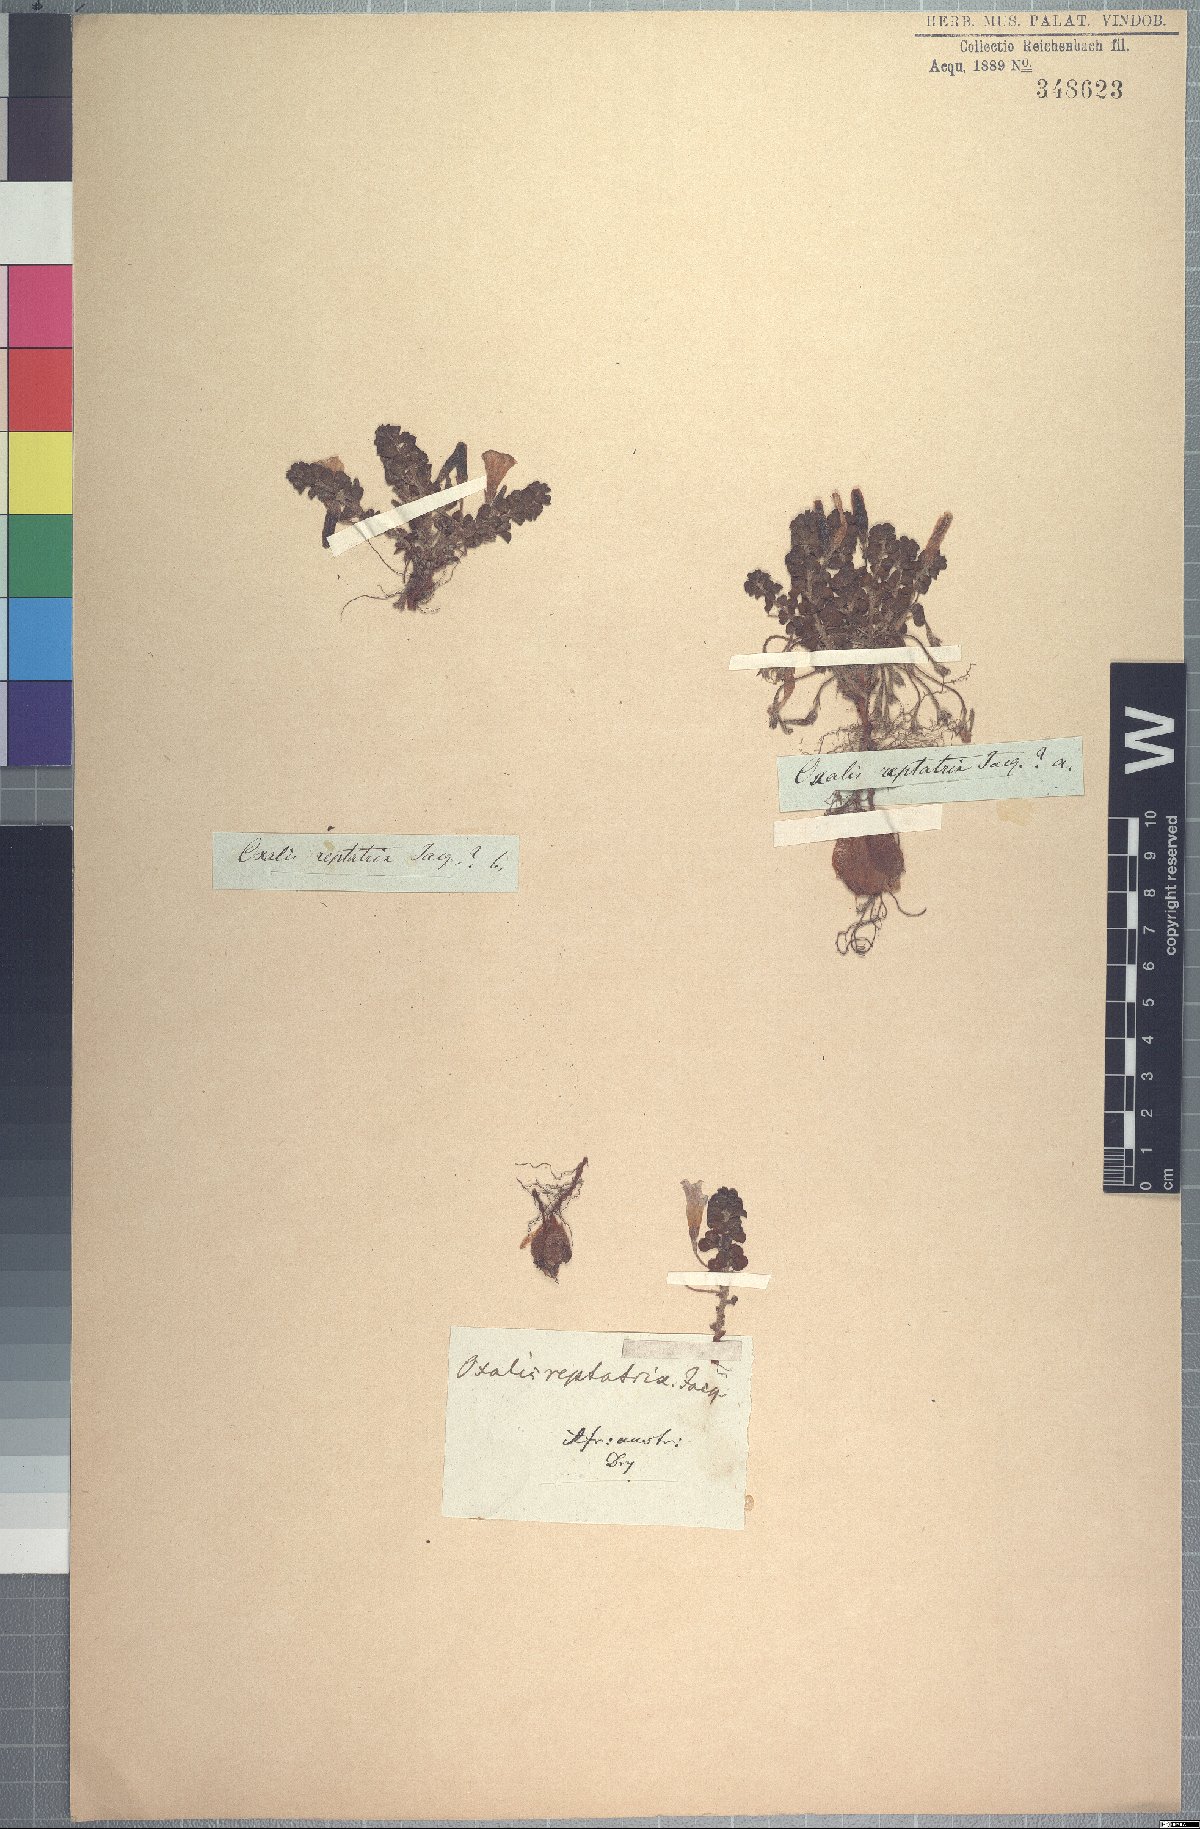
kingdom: Plantae
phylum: Tracheophyta
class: Magnoliopsida
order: Oxalidales
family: Oxalidaceae
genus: Oxalis
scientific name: Oxalis hirta
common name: Tropical woodsorrel
